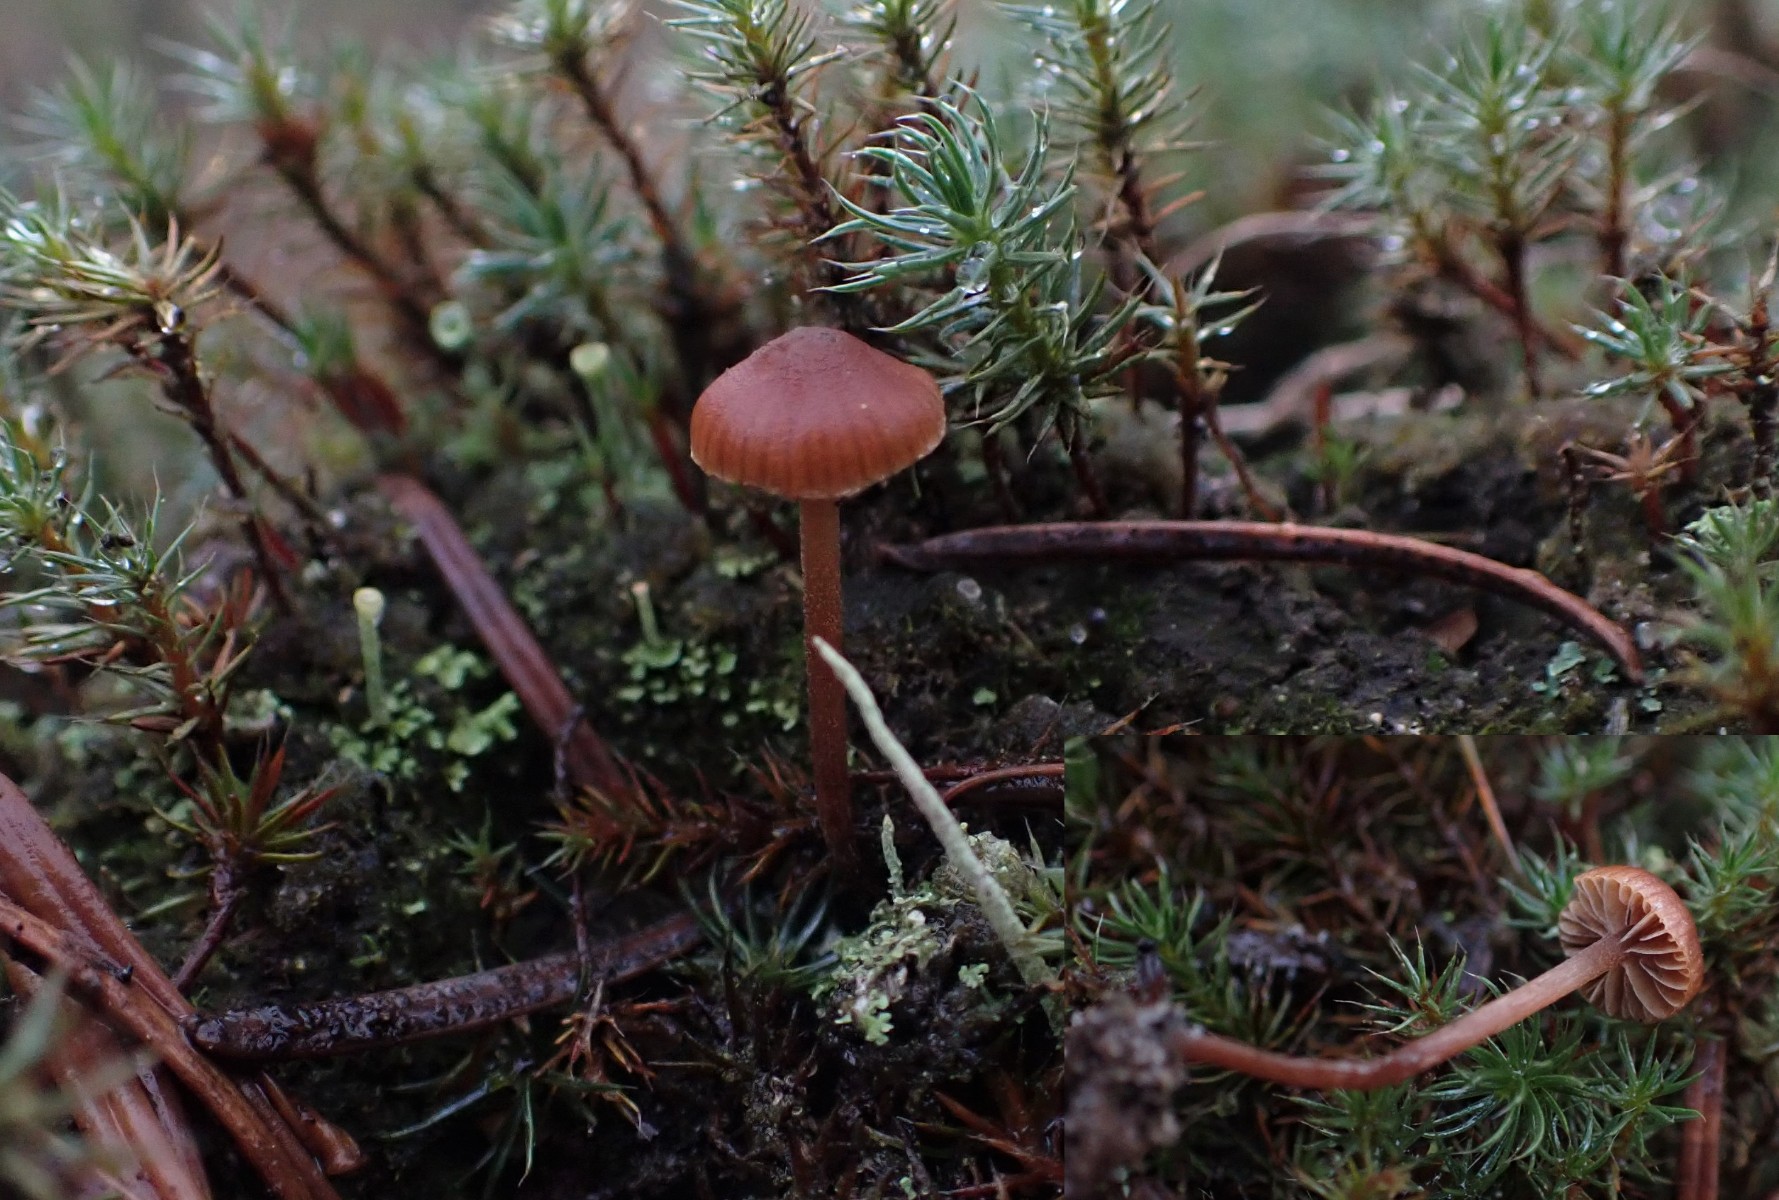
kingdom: Fungi
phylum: Basidiomycota
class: Agaricomycetes
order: Agaricales
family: Strophariaceae
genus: Deconica
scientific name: Deconica montana
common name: rødbrun stråhat
